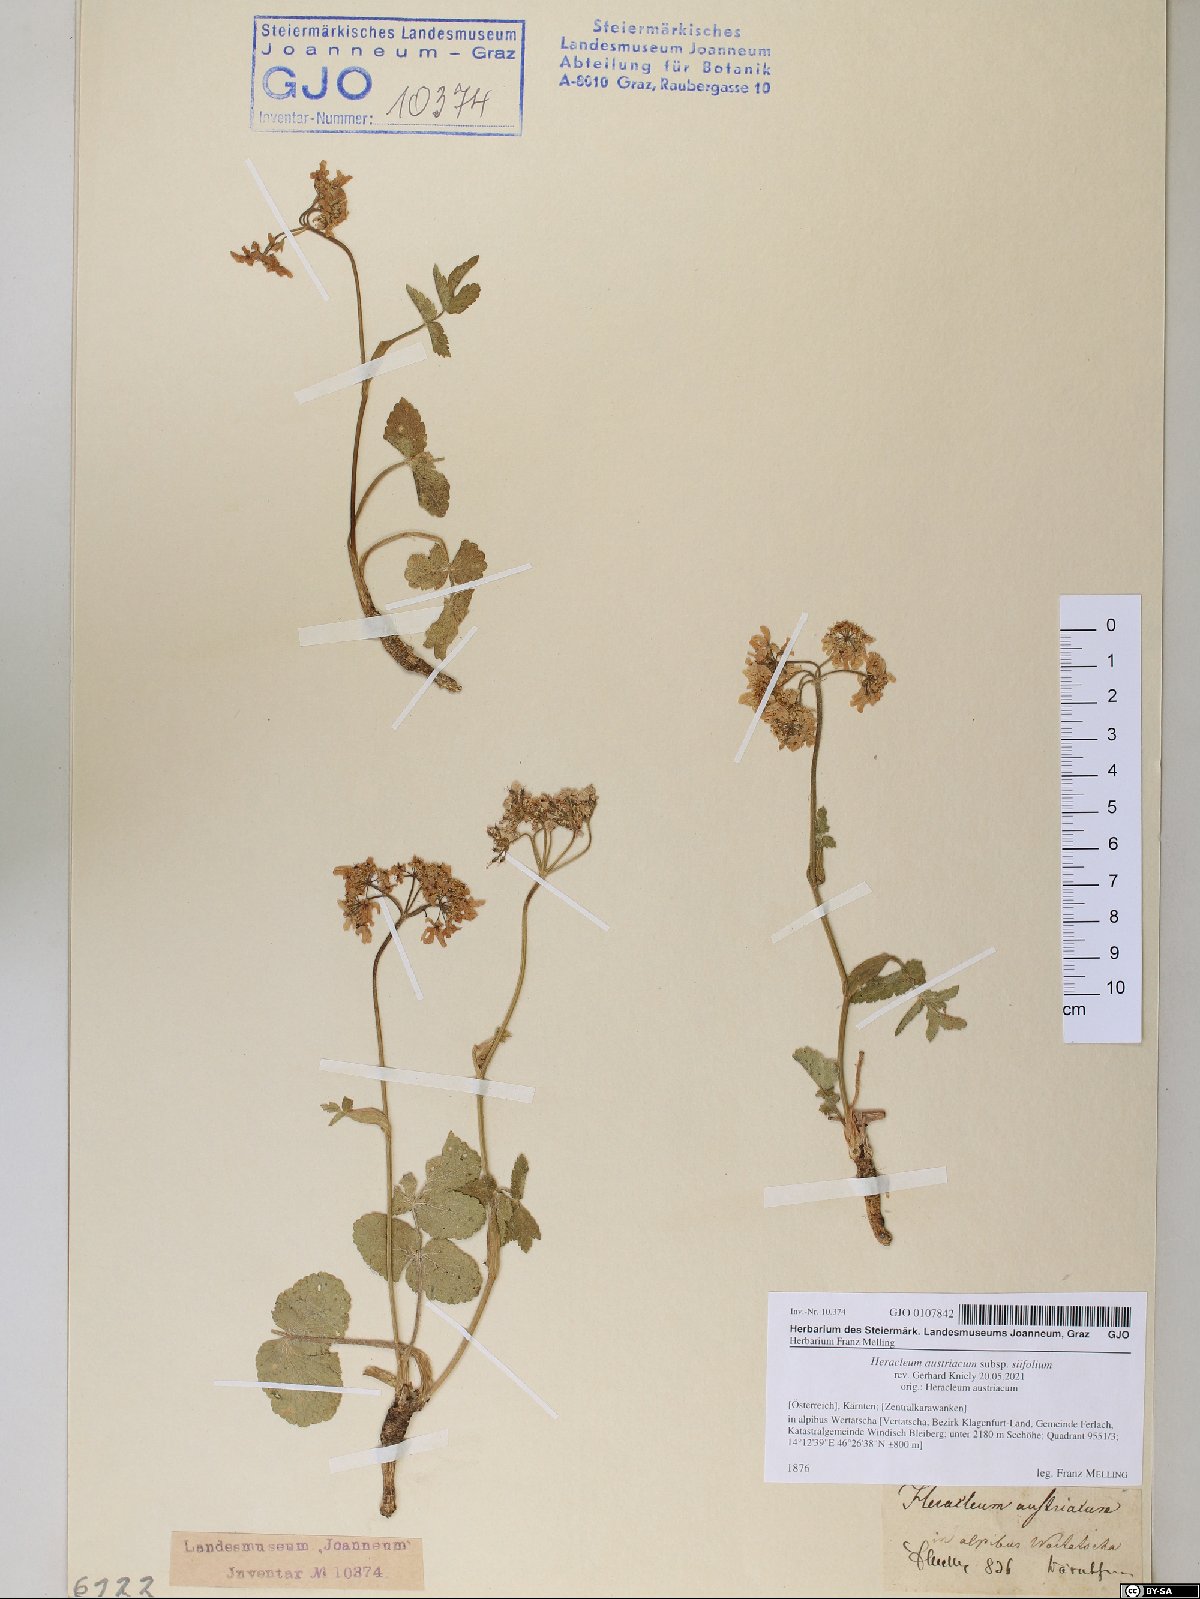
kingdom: Plantae
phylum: Tracheophyta
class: Magnoliopsida
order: Apiales
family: Apiaceae
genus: Heracleum
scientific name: Heracleum austriacum
